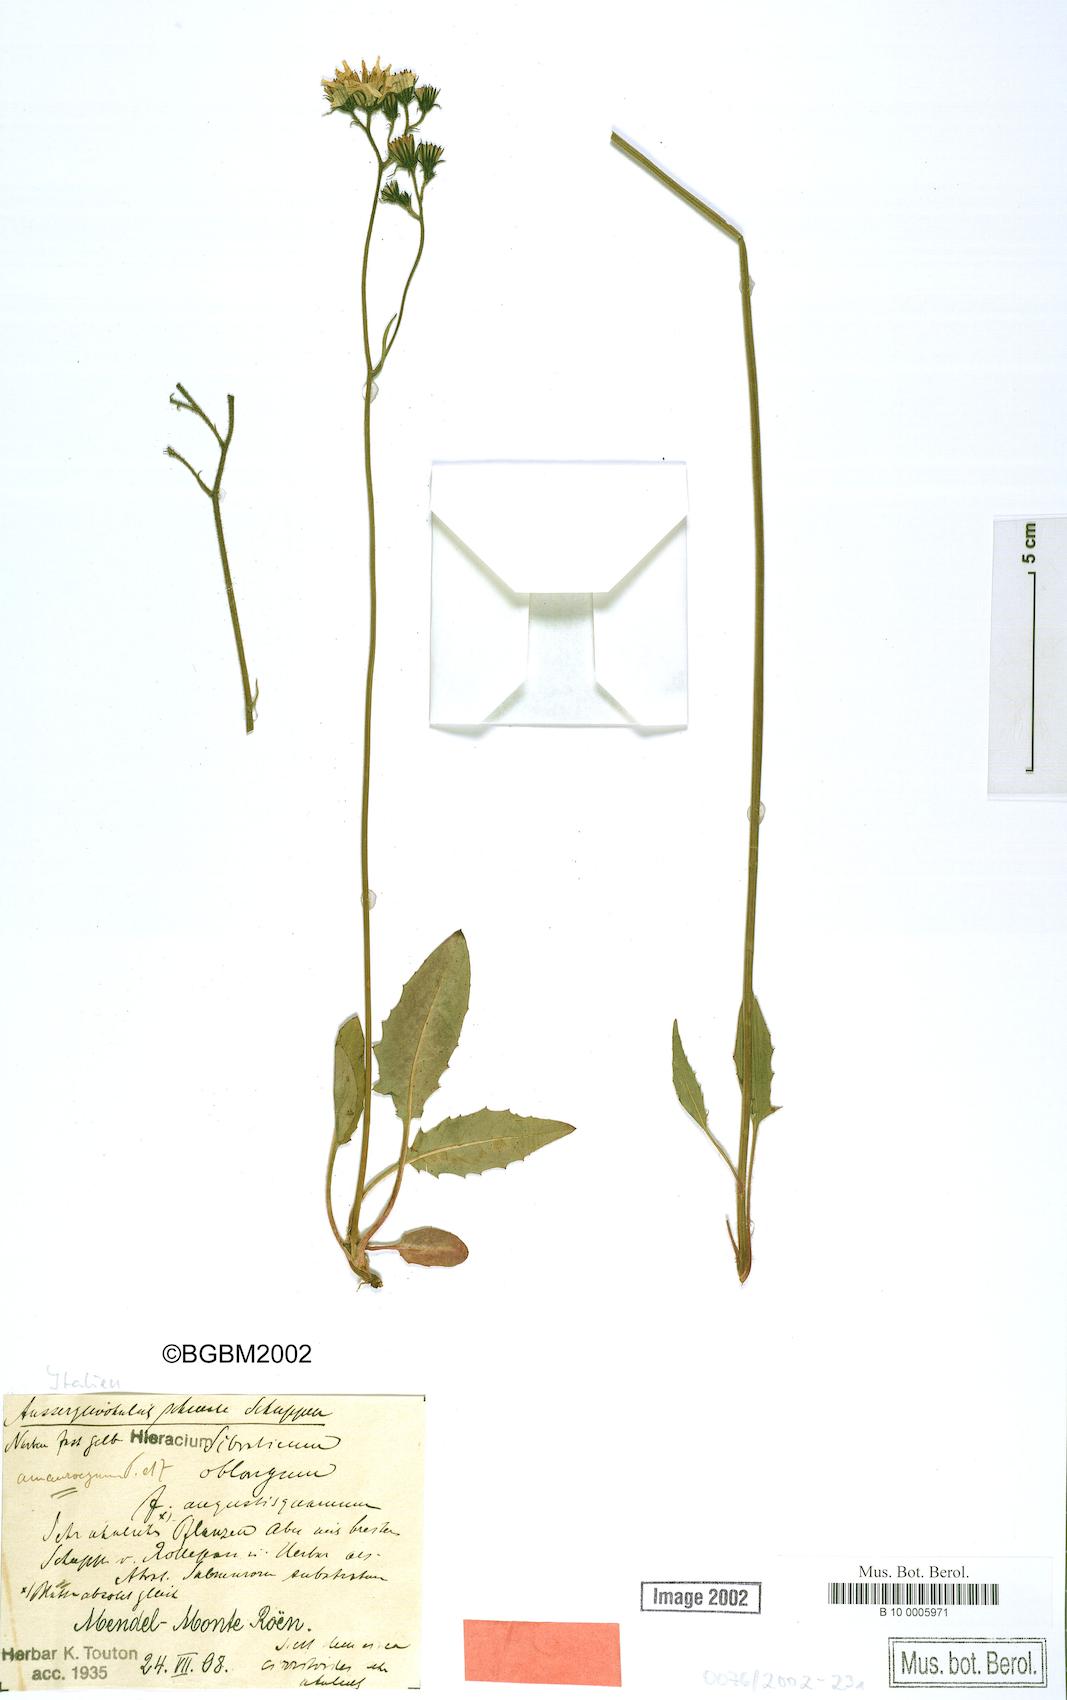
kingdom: Plantae
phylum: Tracheophyta
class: Magnoliopsida
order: Asterales
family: Asteraceae
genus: Hieracium
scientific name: Hieracium murorum
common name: Wall hawkweed
